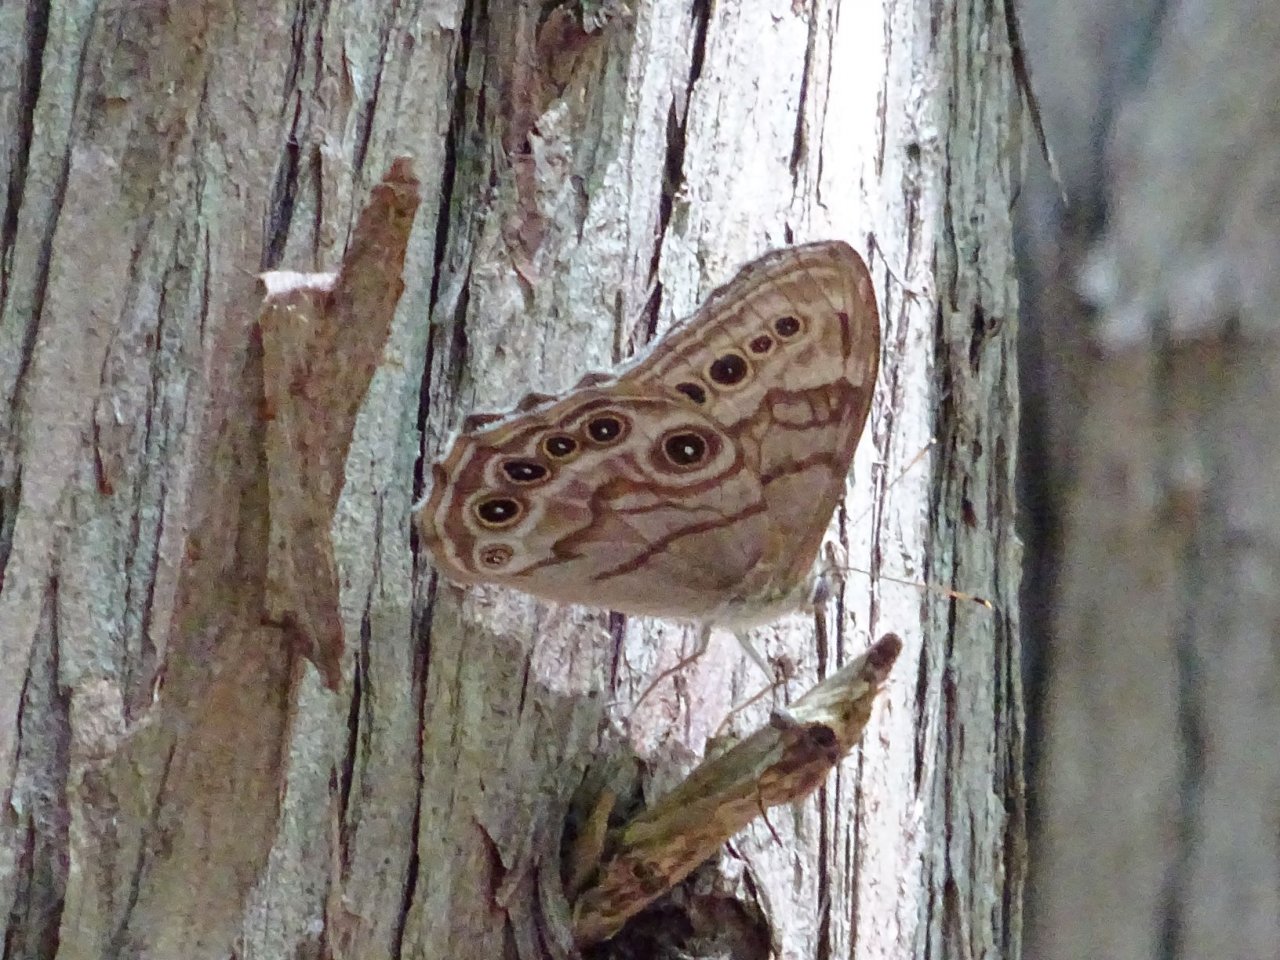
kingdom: Animalia
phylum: Arthropoda
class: Insecta
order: Lepidoptera
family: Nymphalidae
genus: Lethe
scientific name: Lethe anthedon
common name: Northern Pearly-Eye
